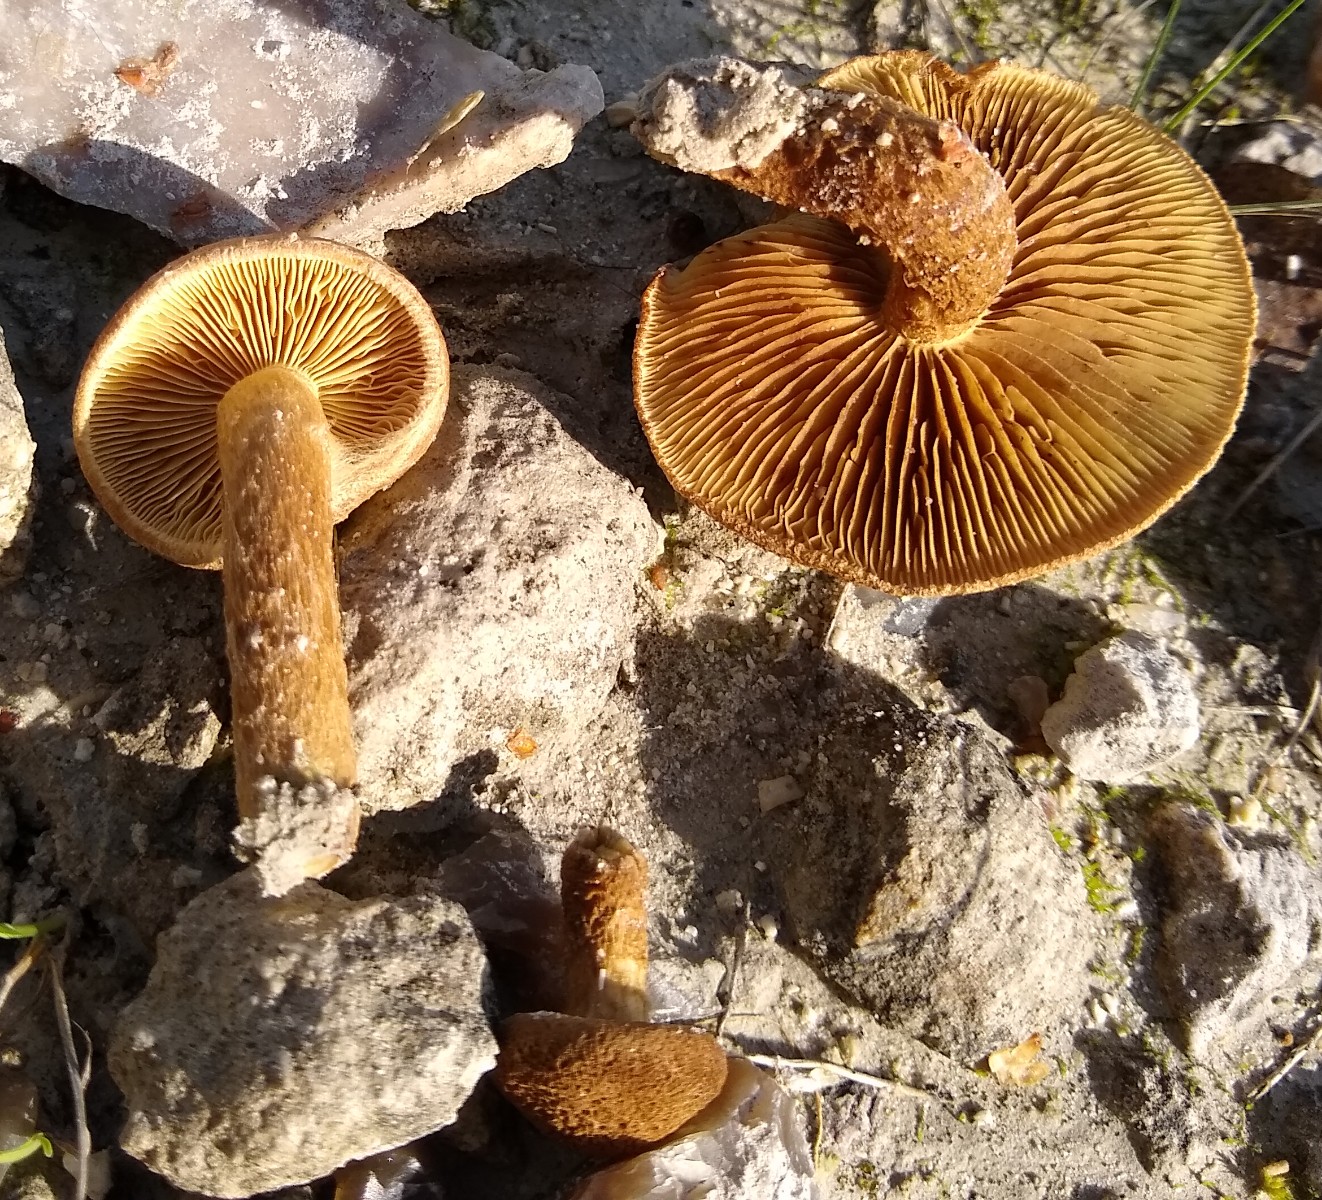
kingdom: Fungi
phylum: Basidiomycota
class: Agaricomycetes
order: Agaricales
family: Inocybaceae
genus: Mallocybe
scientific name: Mallocybe
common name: Trævlhat
